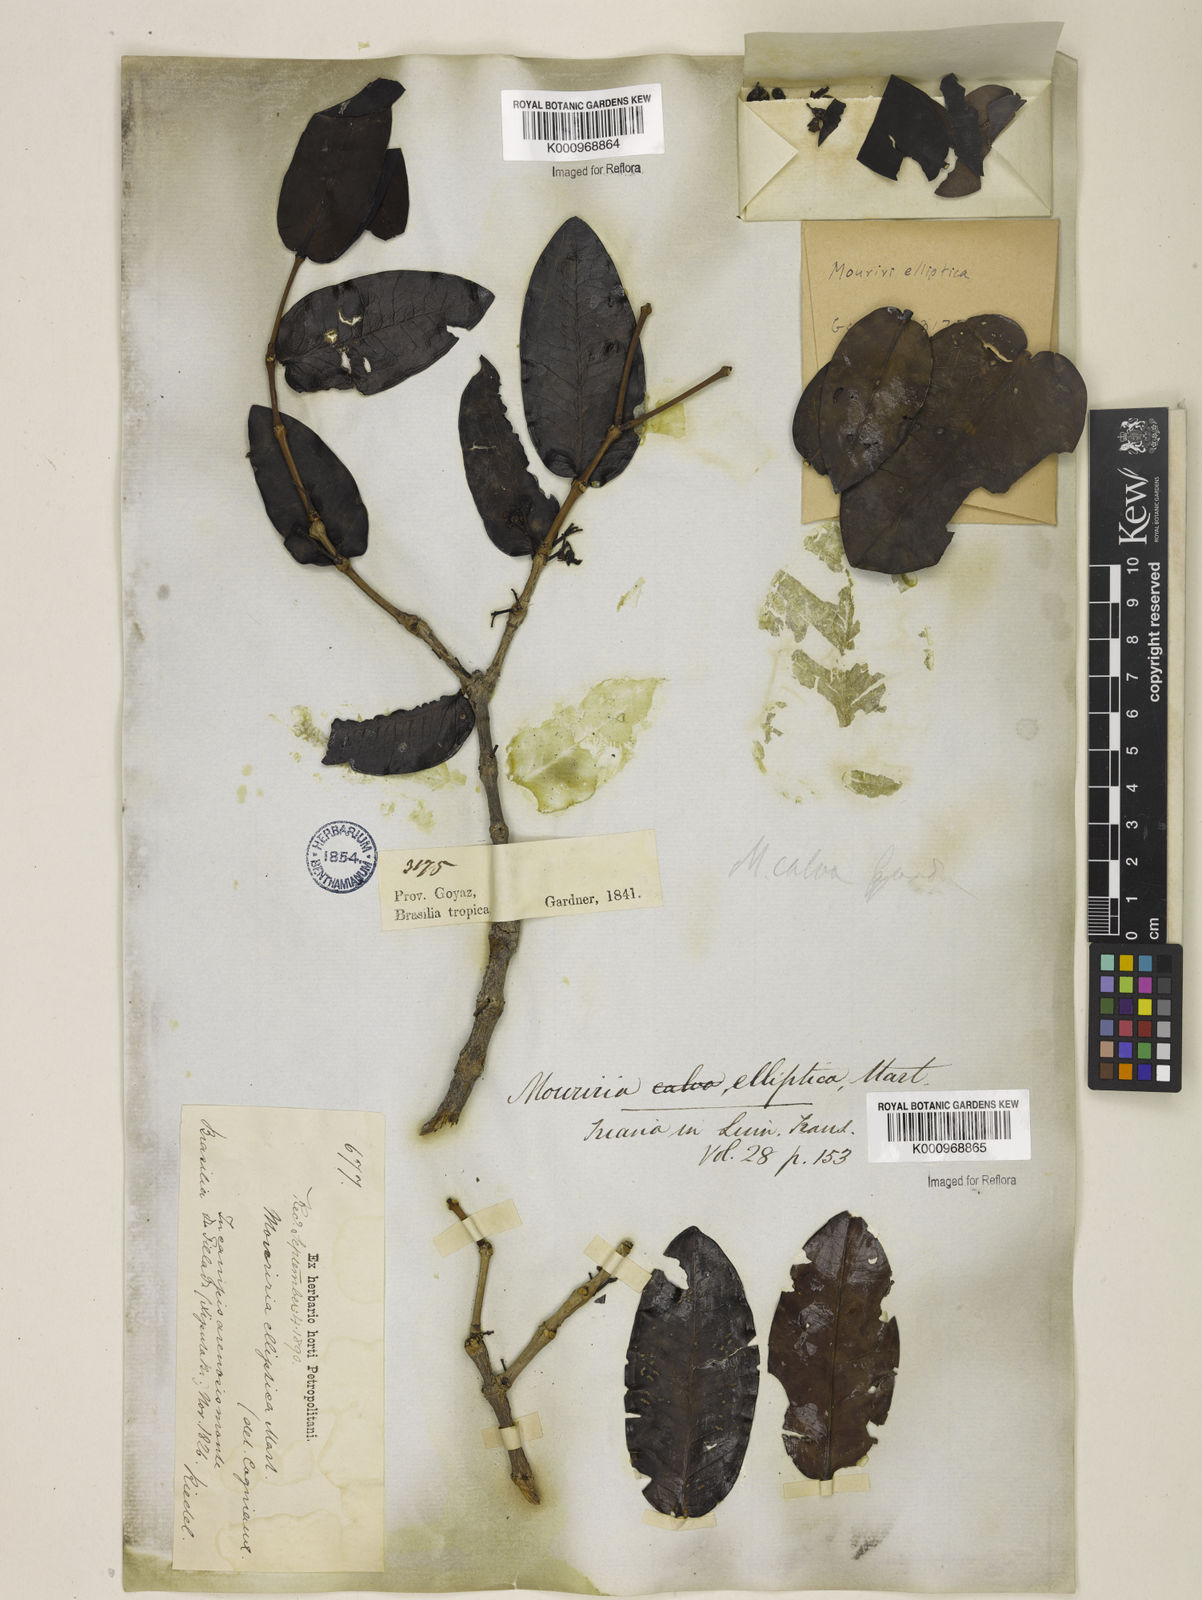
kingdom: Plantae
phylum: Tracheophyta
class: Magnoliopsida
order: Myrtales
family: Melastomataceae
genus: Mouriri
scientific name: Mouriri elliptica
